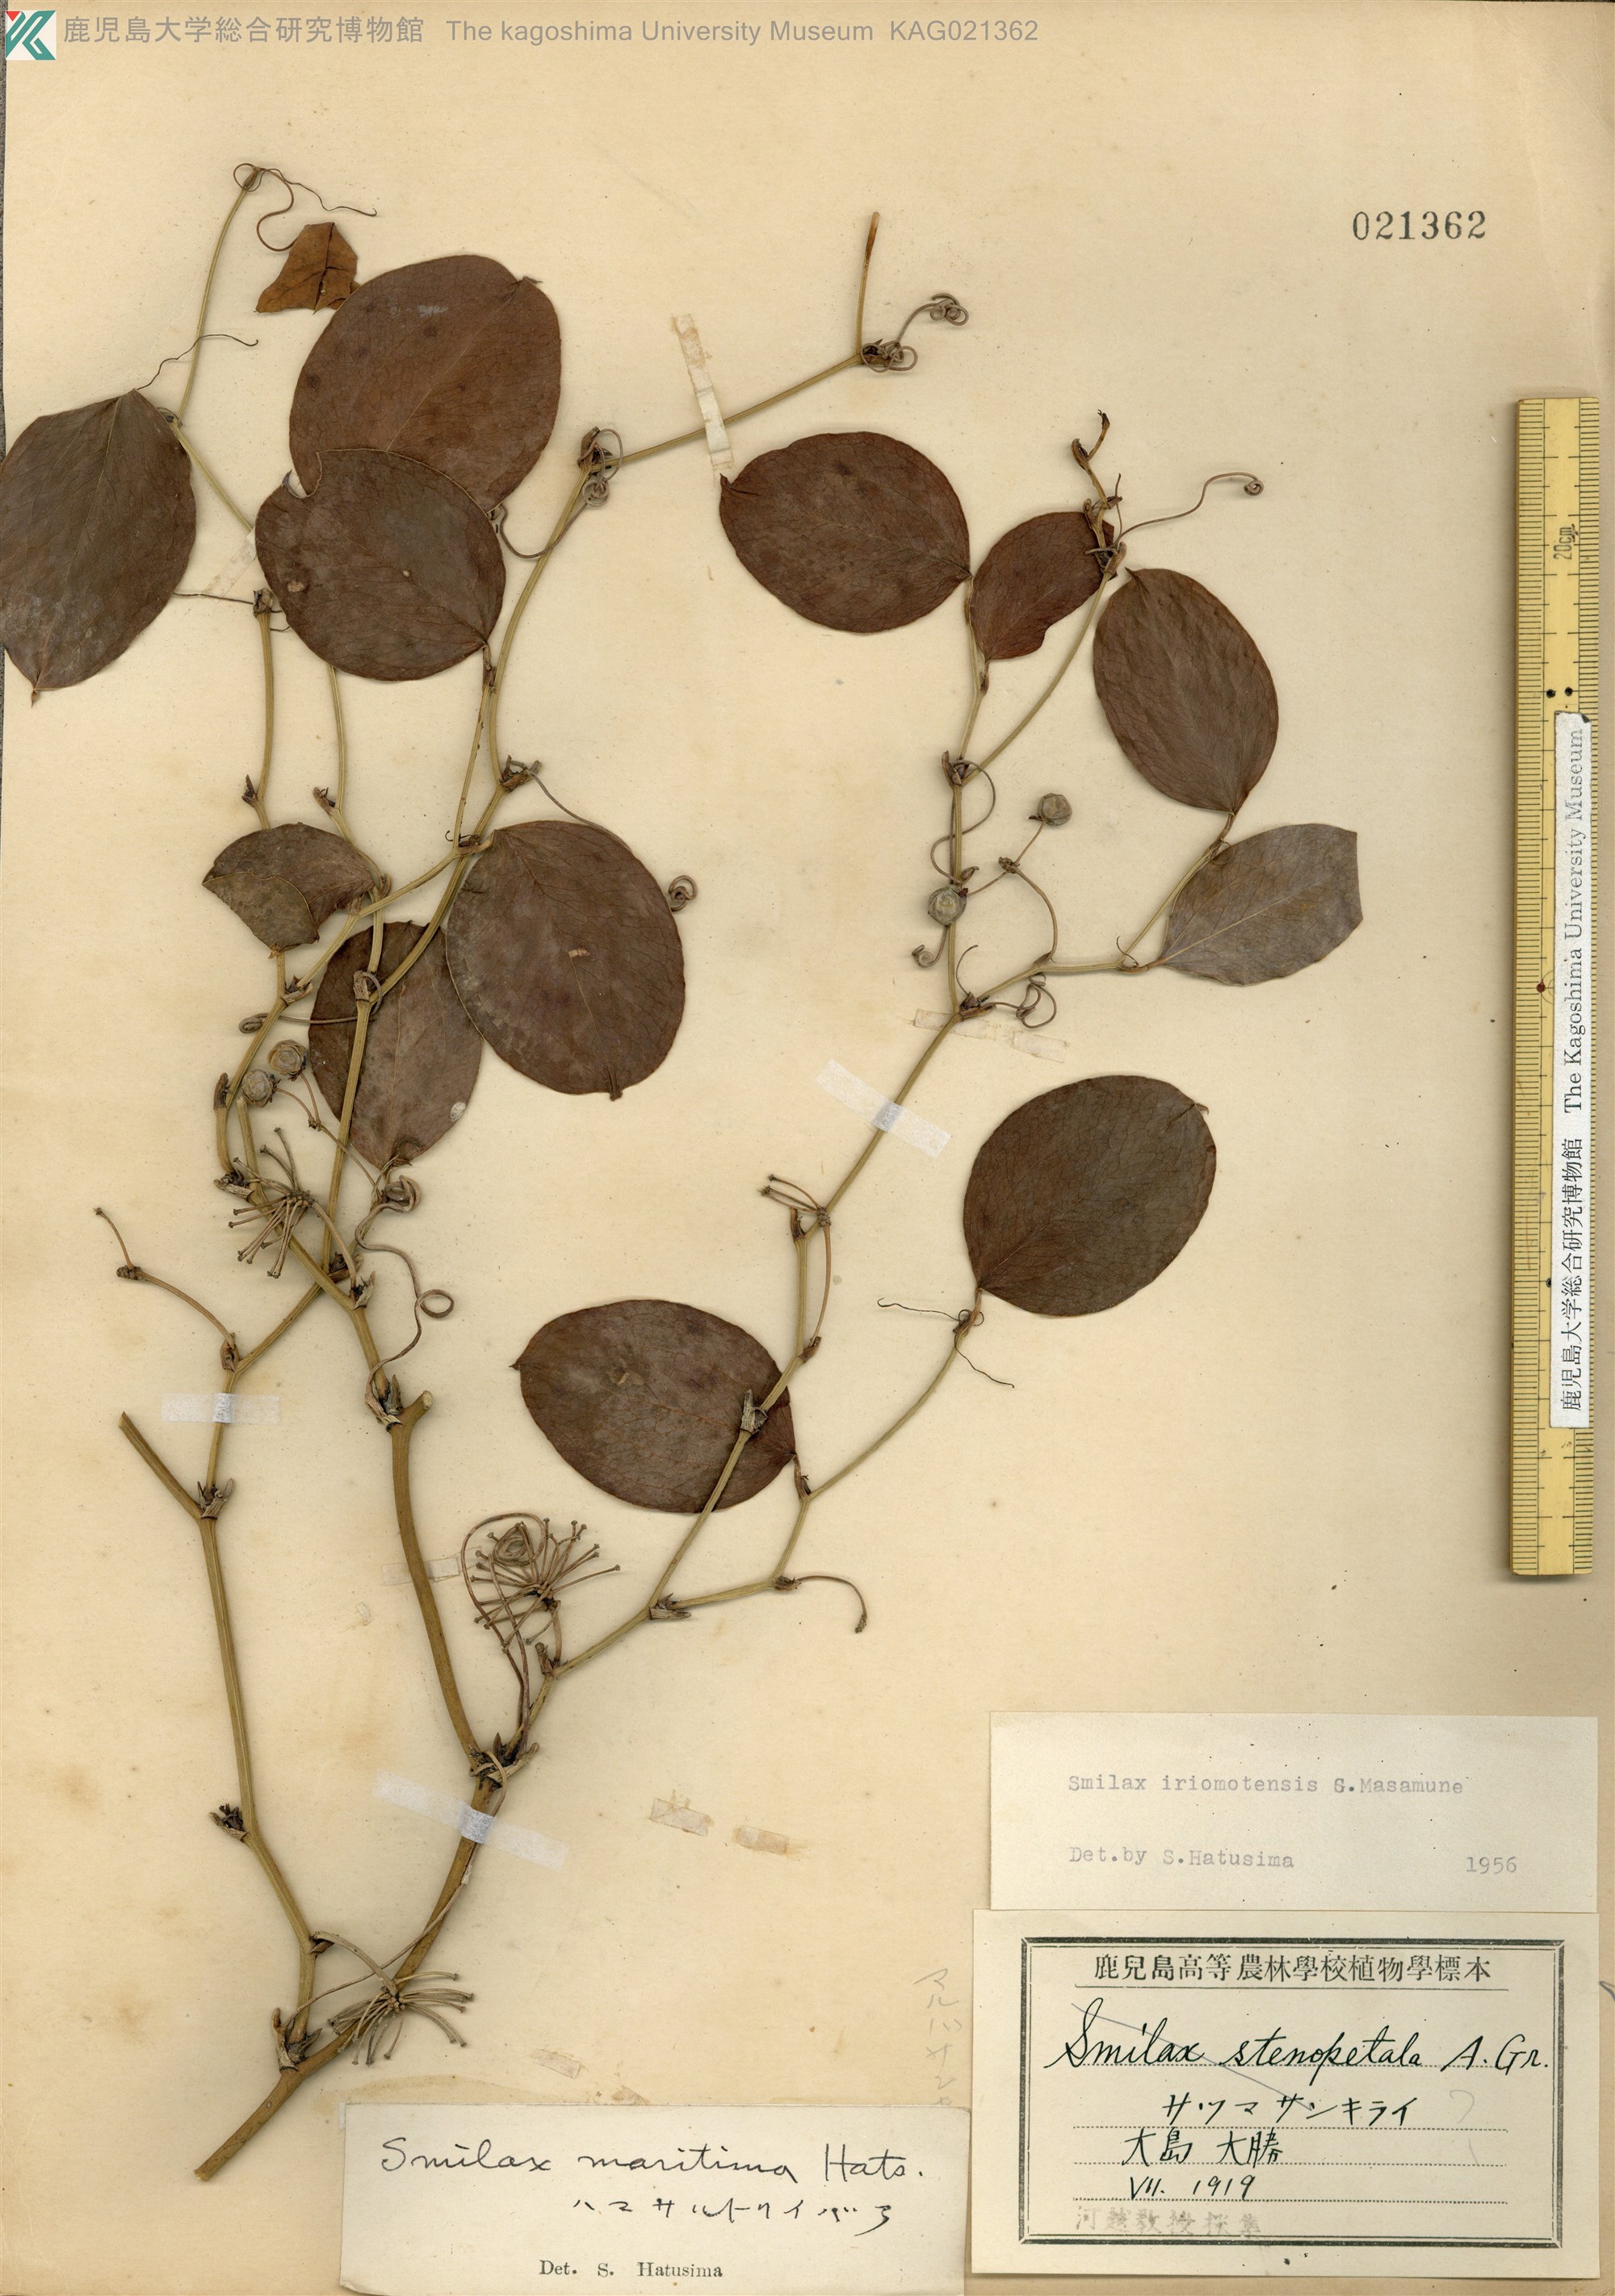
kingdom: Plantae
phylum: Tracheophyta
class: Liliopsida
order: Liliales
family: Smilacaceae
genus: Smilax
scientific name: Smilax sebeana
